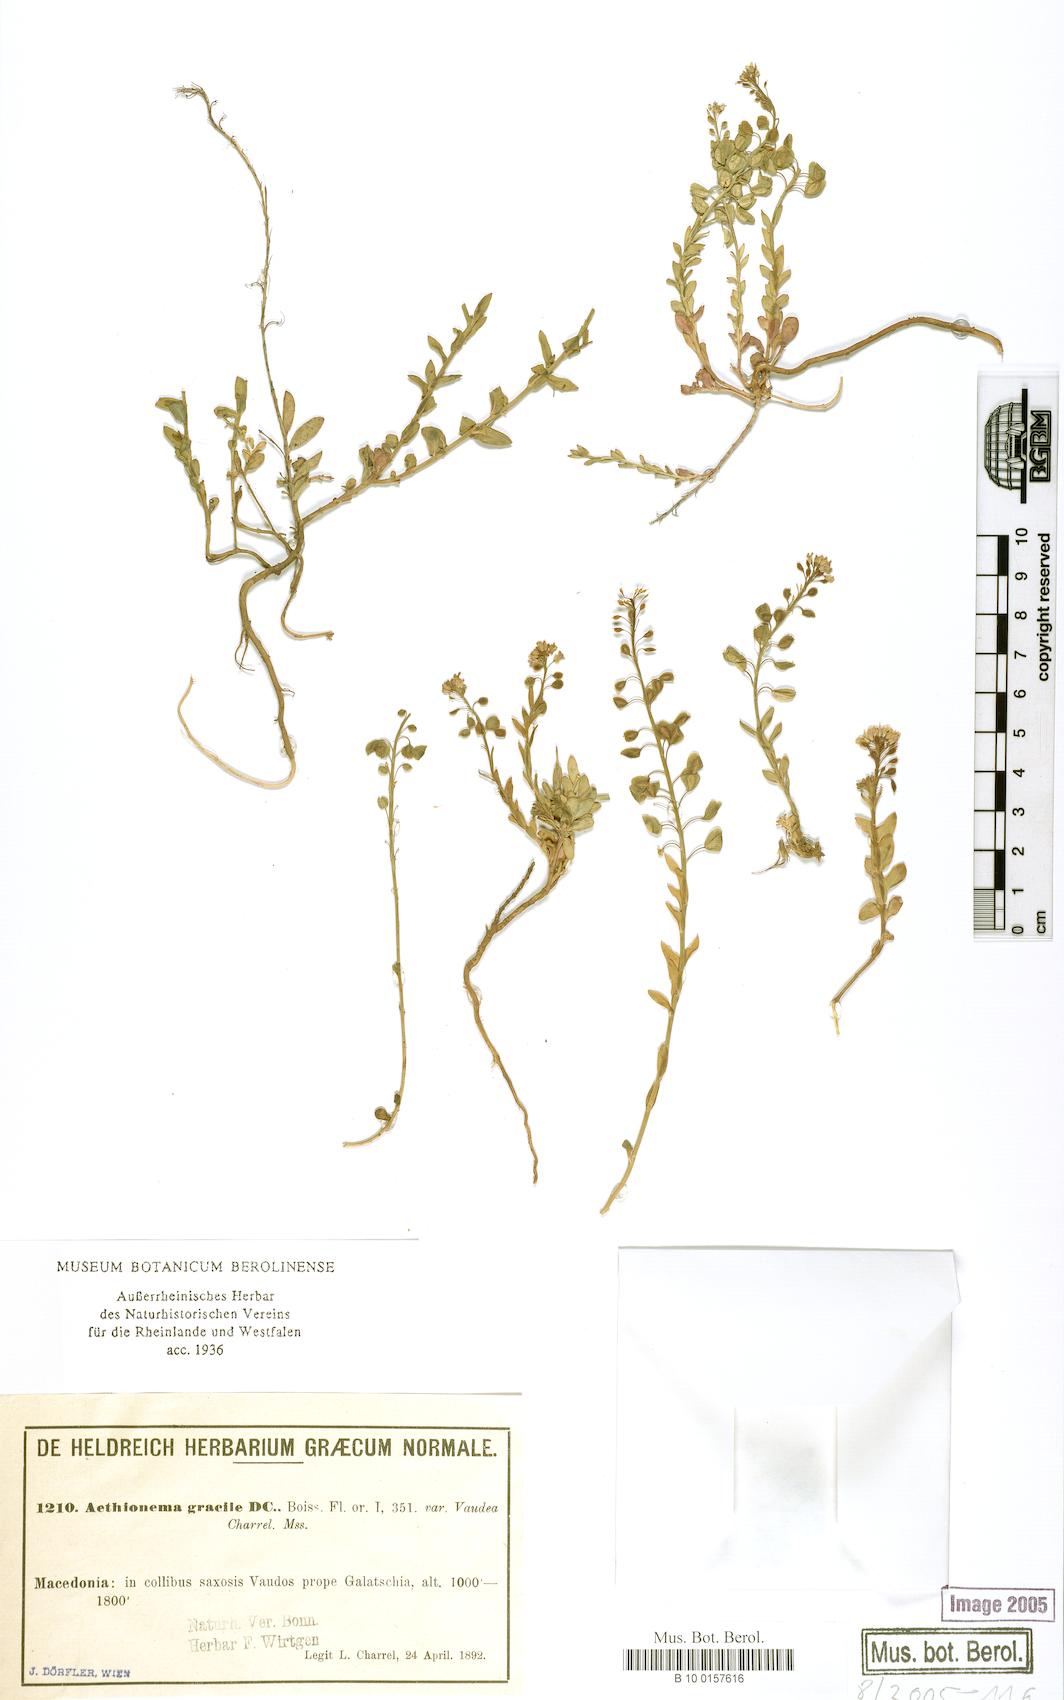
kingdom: Plantae
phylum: Tracheophyta
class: Magnoliopsida
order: Brassicales
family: Brassicaceae
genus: Aethionema
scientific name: Aethionema saxatile
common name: Burnt candytuft
